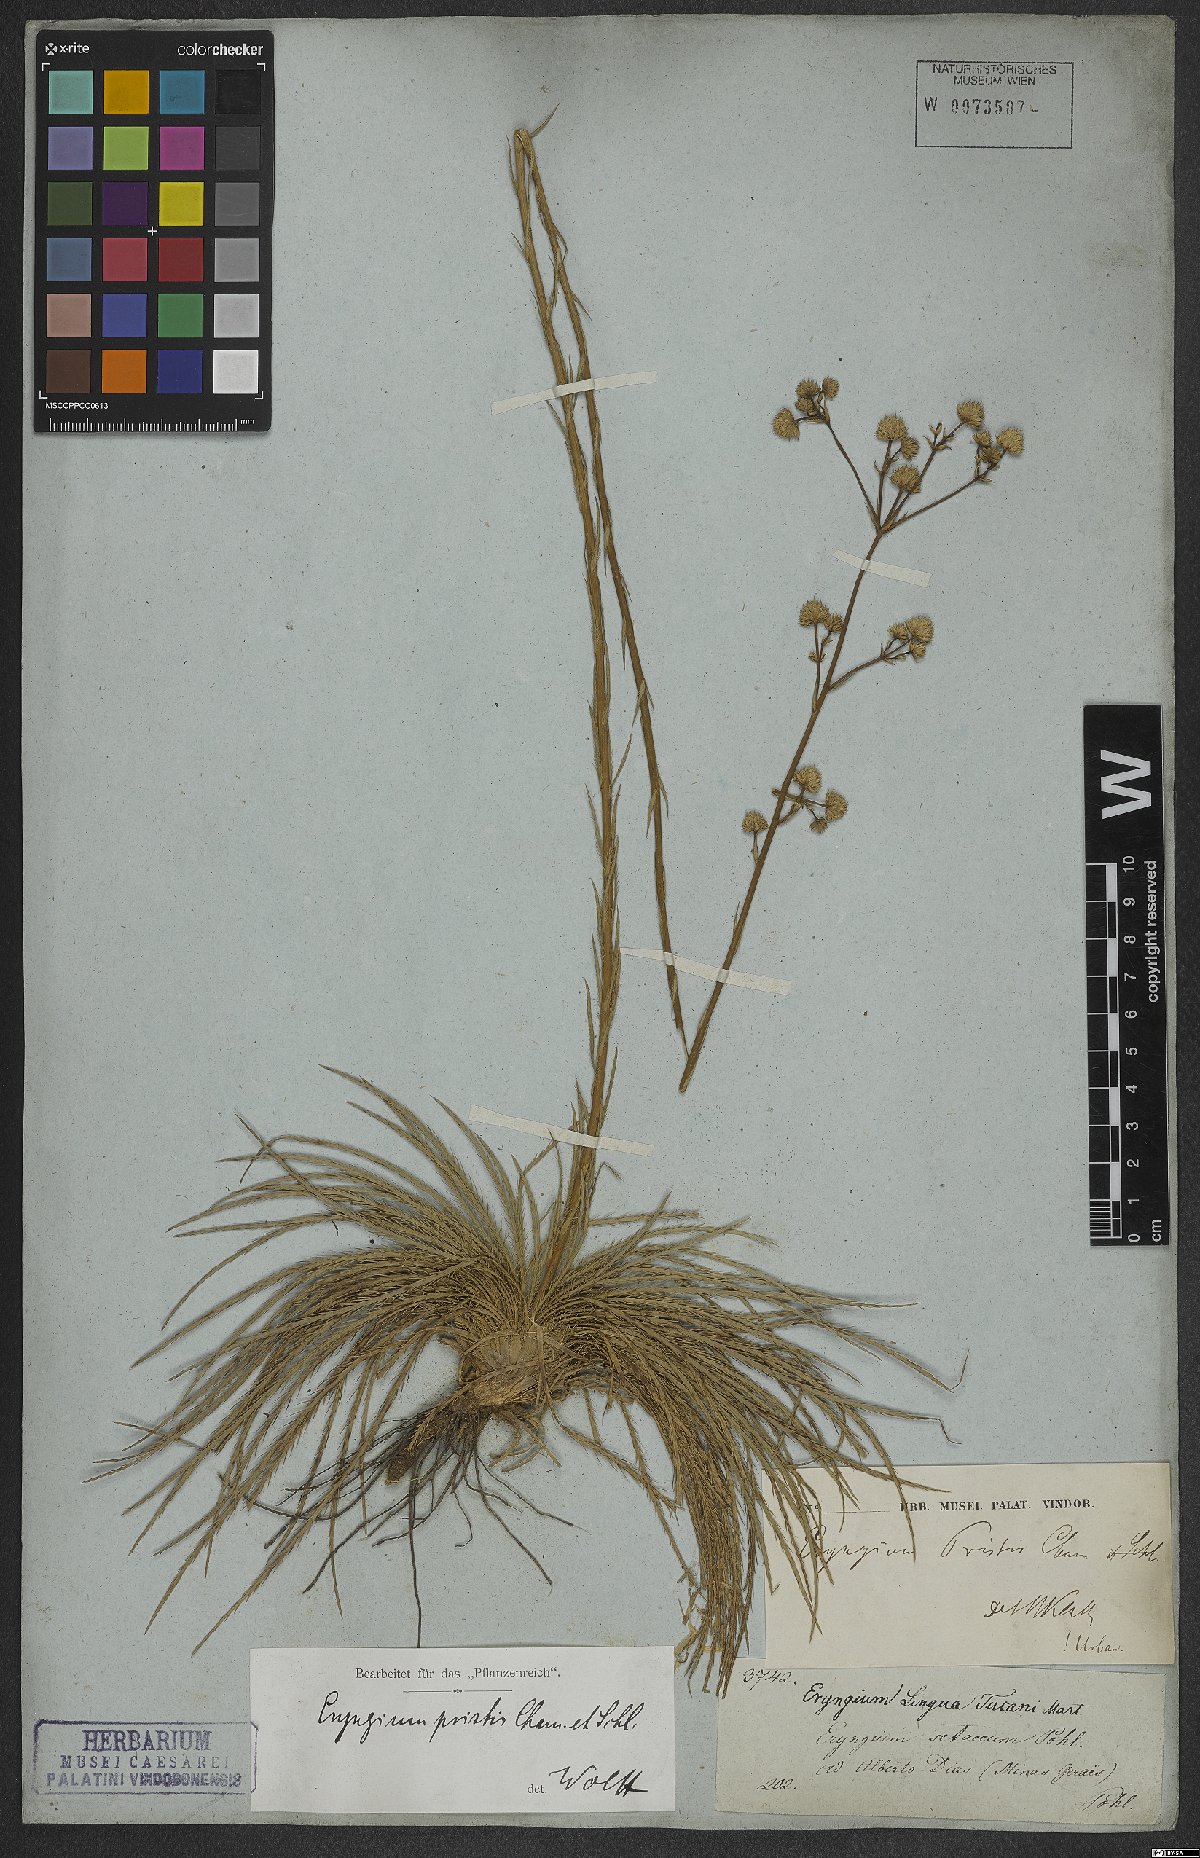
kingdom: Plantae
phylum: Tracheophyta
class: Magnoliopsida
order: Apiales
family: Apiaceae
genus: Eryngium
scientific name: Eryngium pristis
